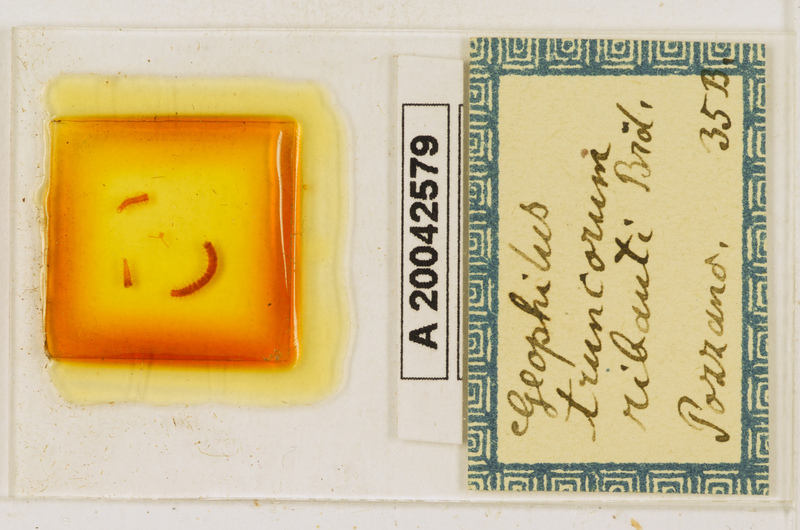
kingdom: Animalia
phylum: Arthropoda
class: Chilopoda
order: Geophilomorpha
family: Geophilidae
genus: Geophilus
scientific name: Geophilus ribauti
